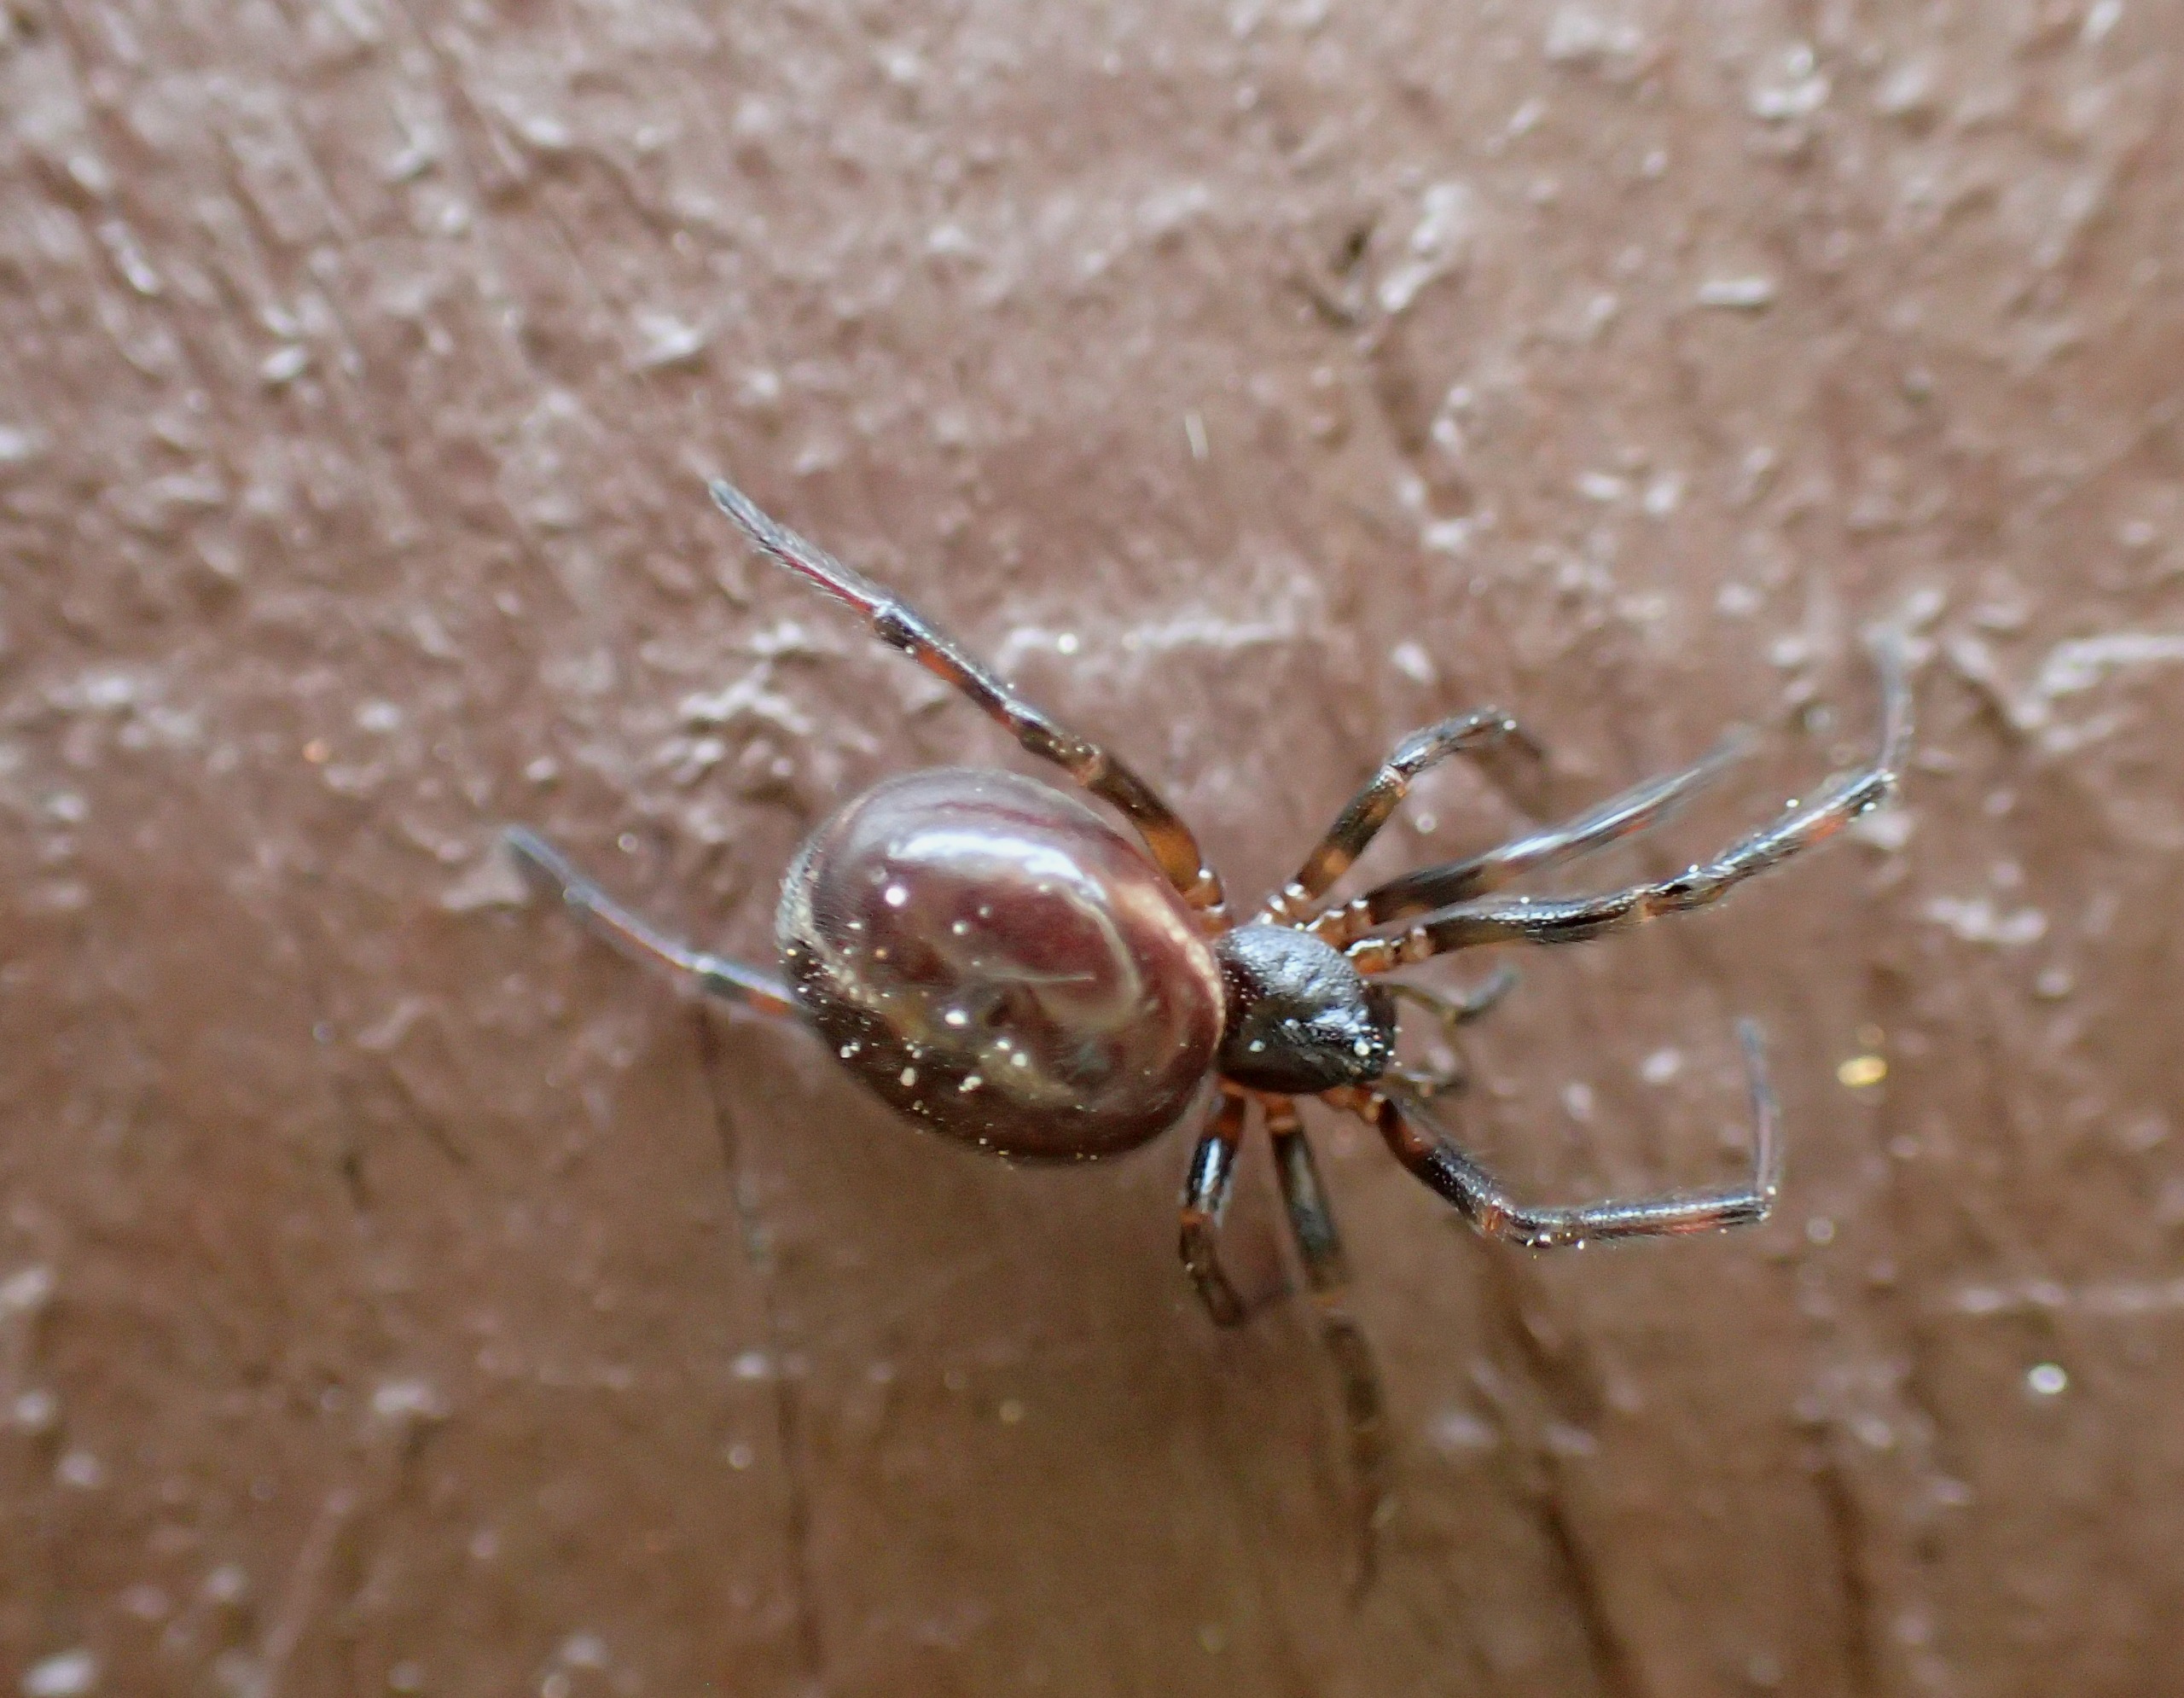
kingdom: Animalia
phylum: Arthropoda
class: Arachnida
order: Araneae
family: Theridiidae
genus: Steatoda
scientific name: Steatoda bipunctata
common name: Fedtedderkop
